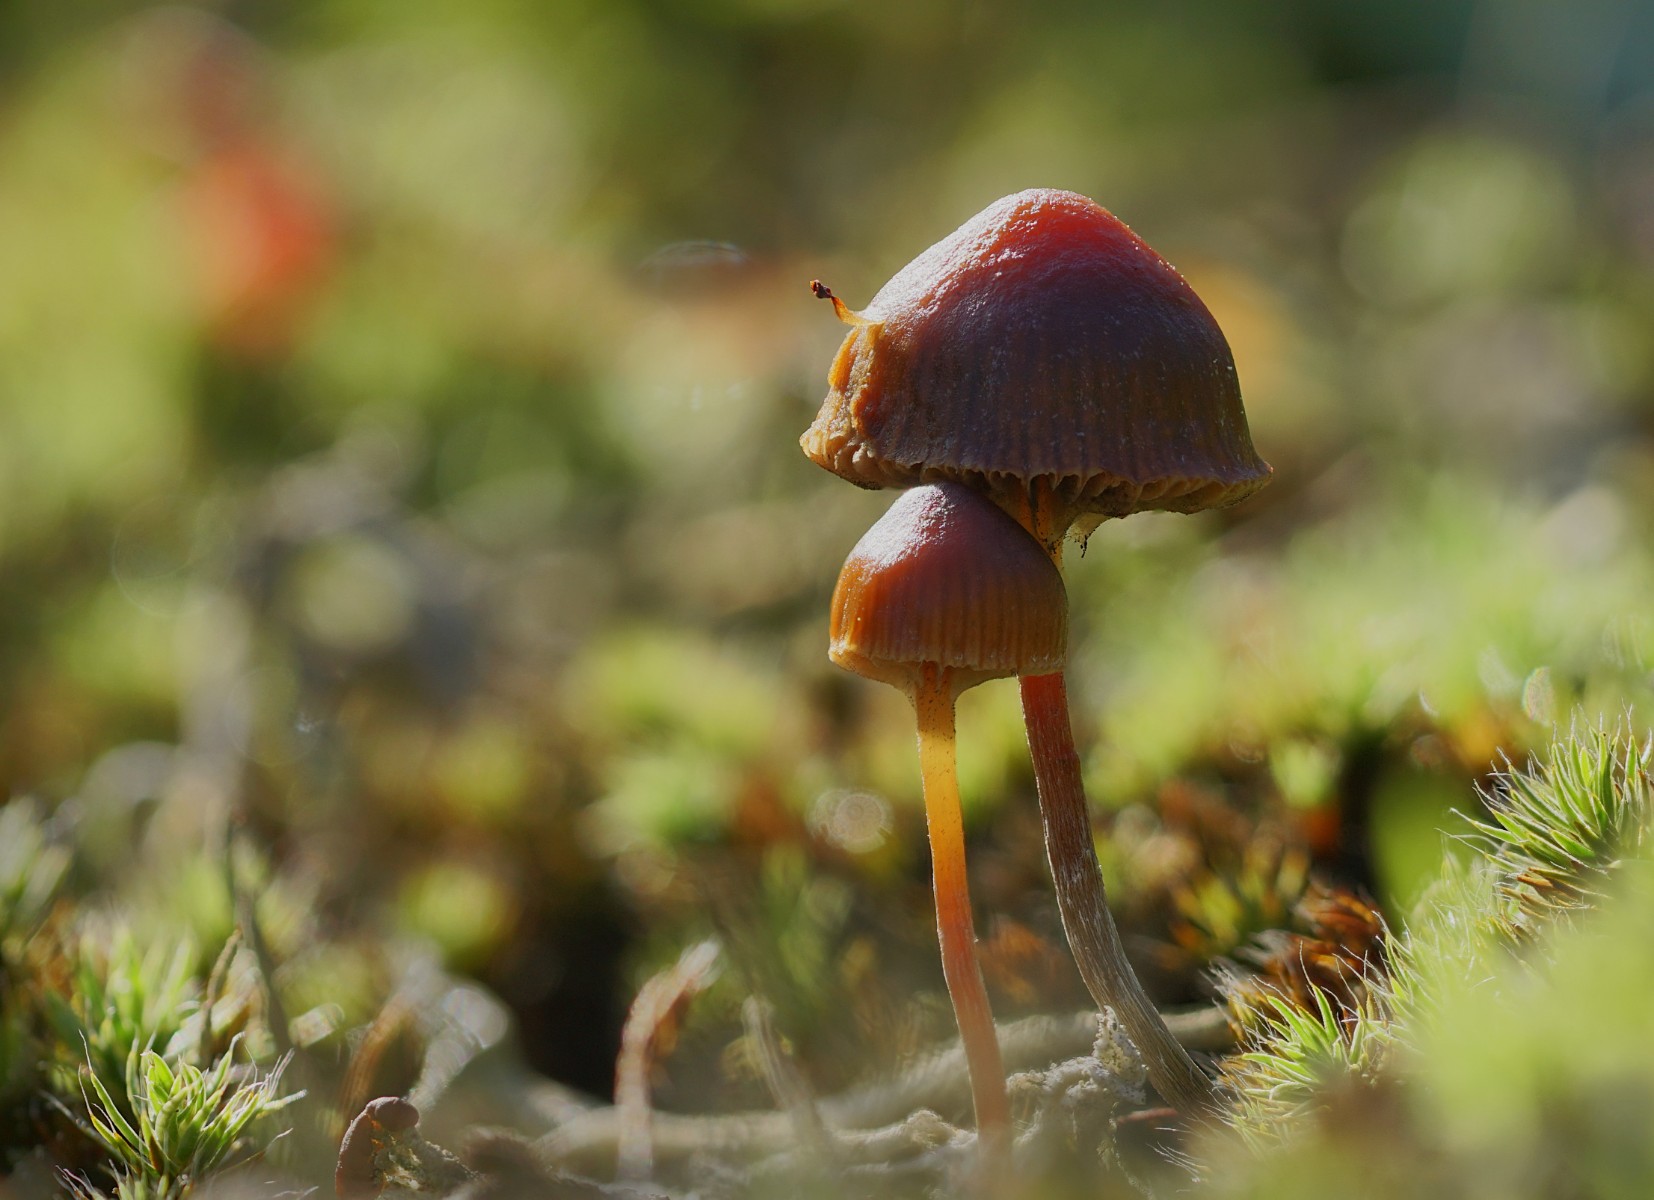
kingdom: Fungi
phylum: Basidiomycota
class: Agaricomycetes
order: Agaricales
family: Strophariaceae
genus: Deconica
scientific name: Deconica montana
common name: rødbrun stråhat
